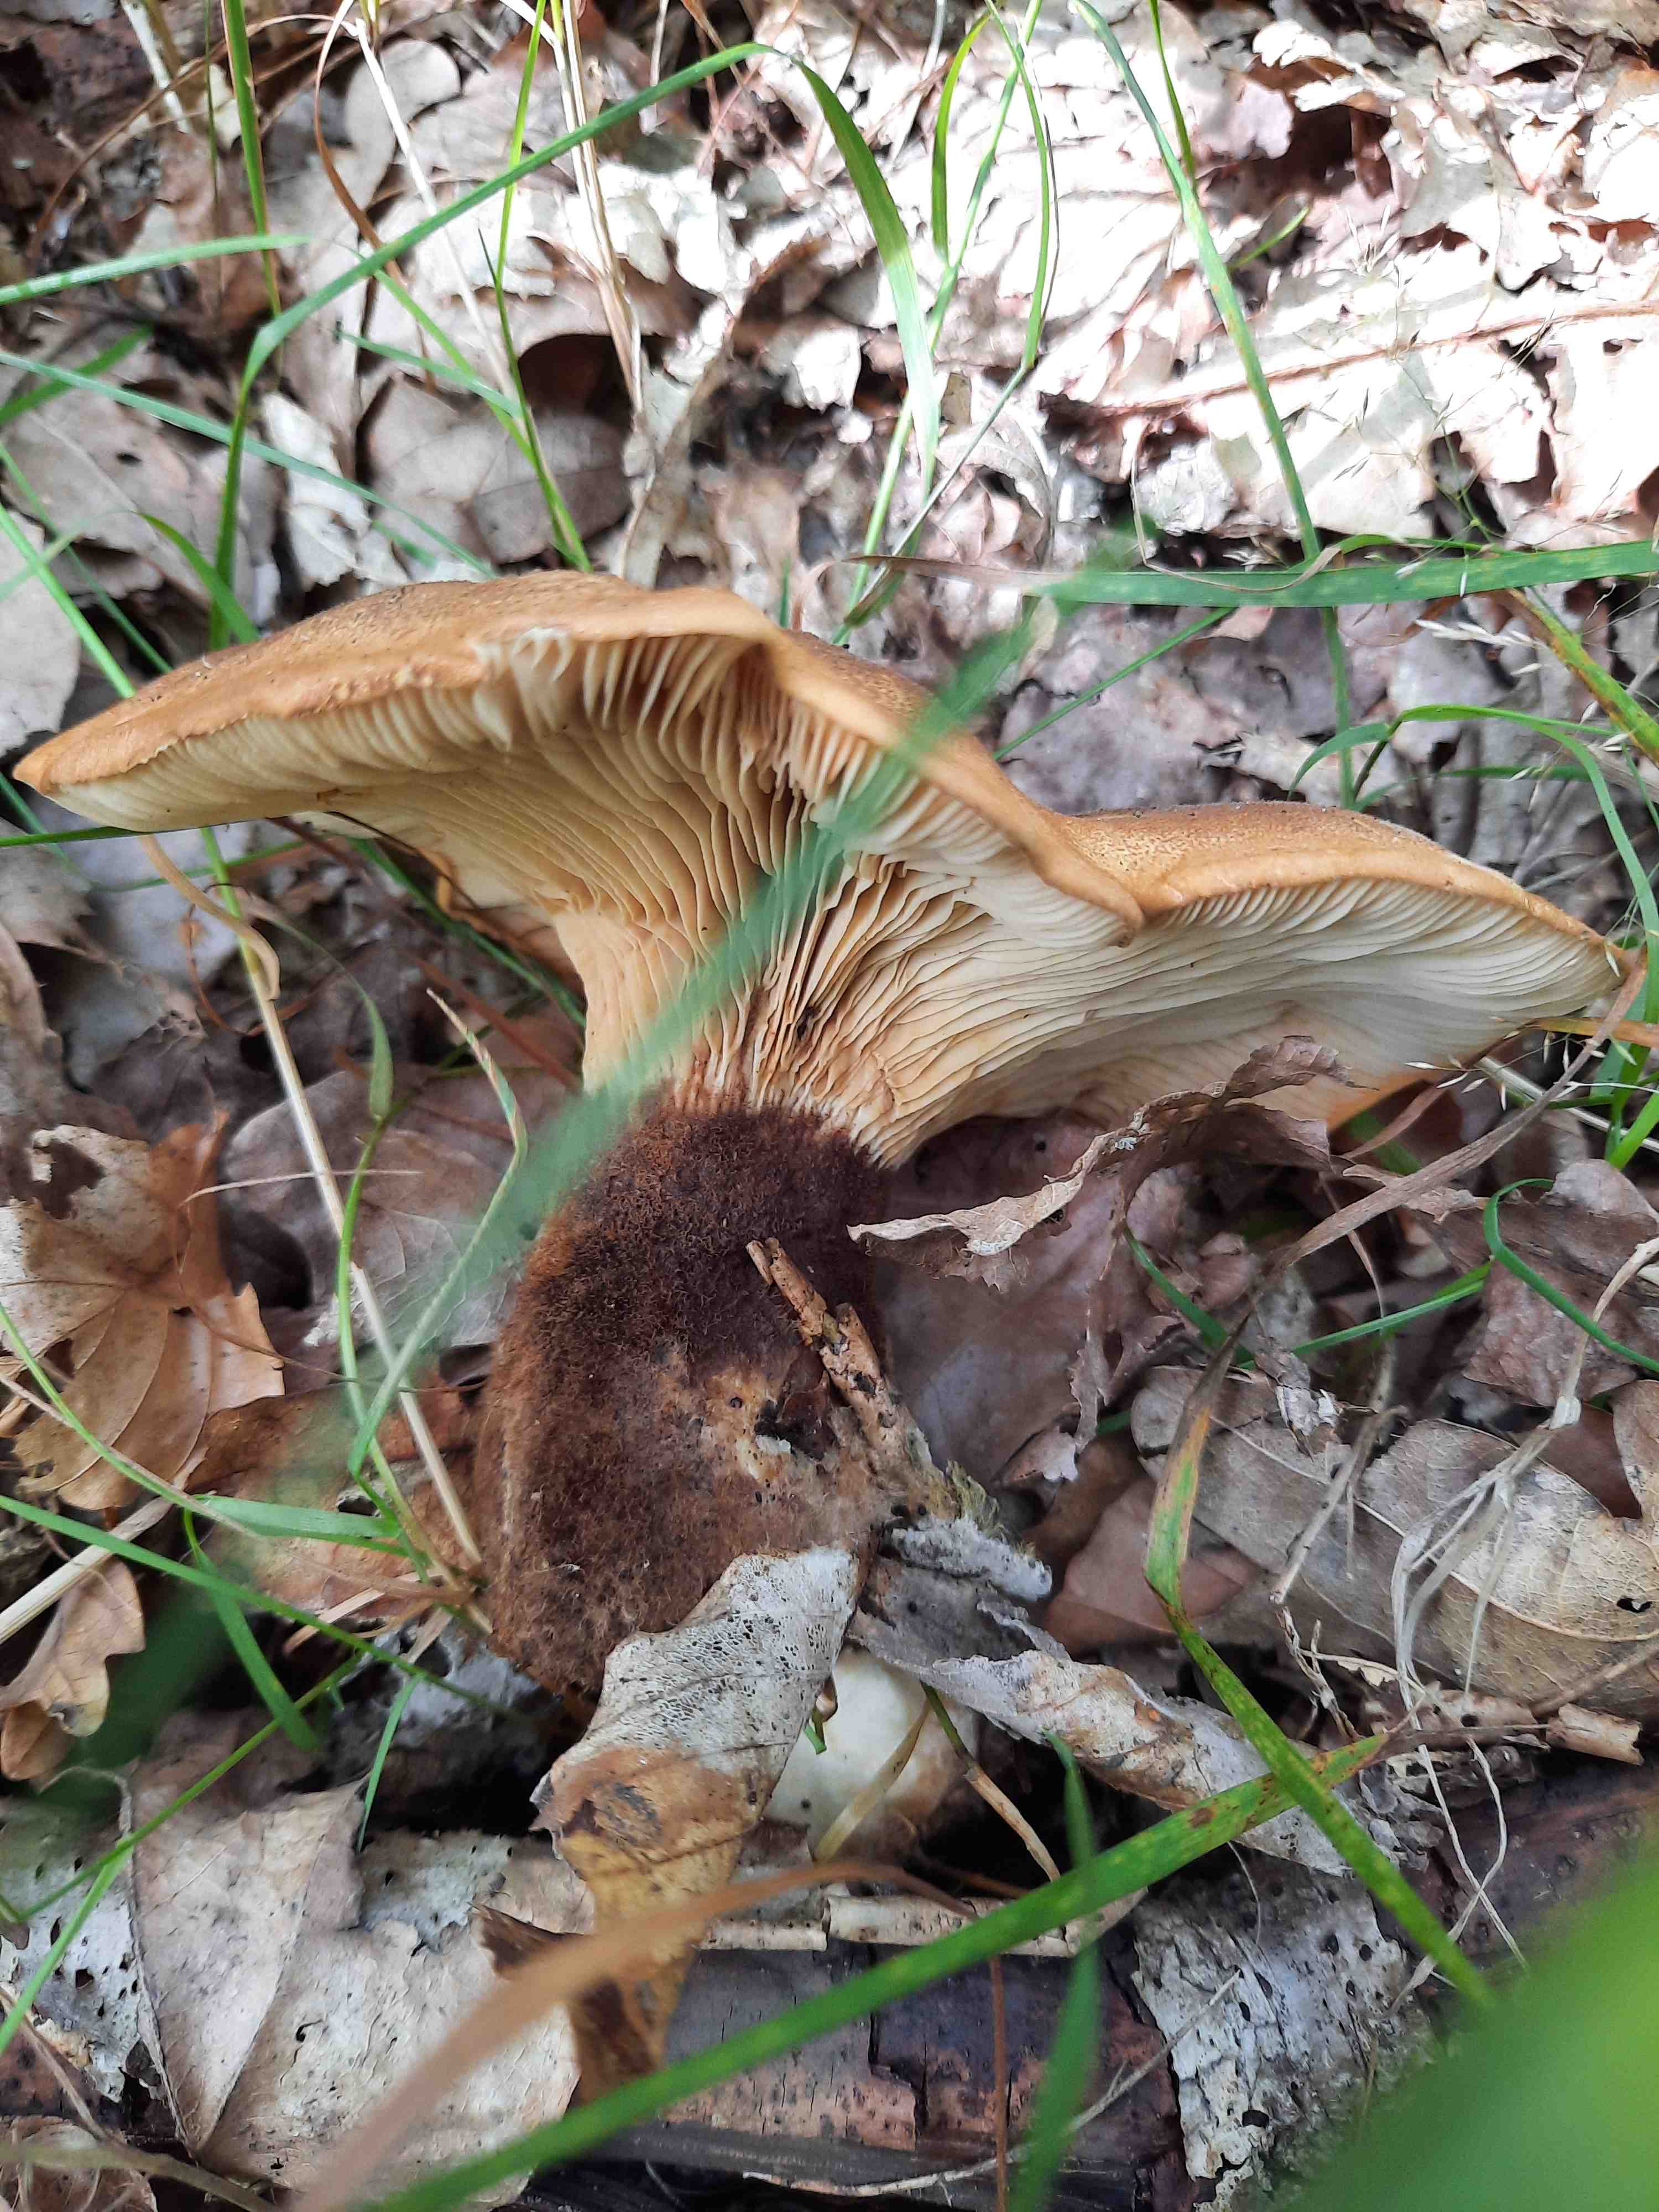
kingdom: Fungi
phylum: Basidiomycota
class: Agaricomycetes
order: Boletales
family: Tapinellaceae
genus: Tapinella
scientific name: Tapinella atrotomentosa
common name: sortfiltet viftesvamp
